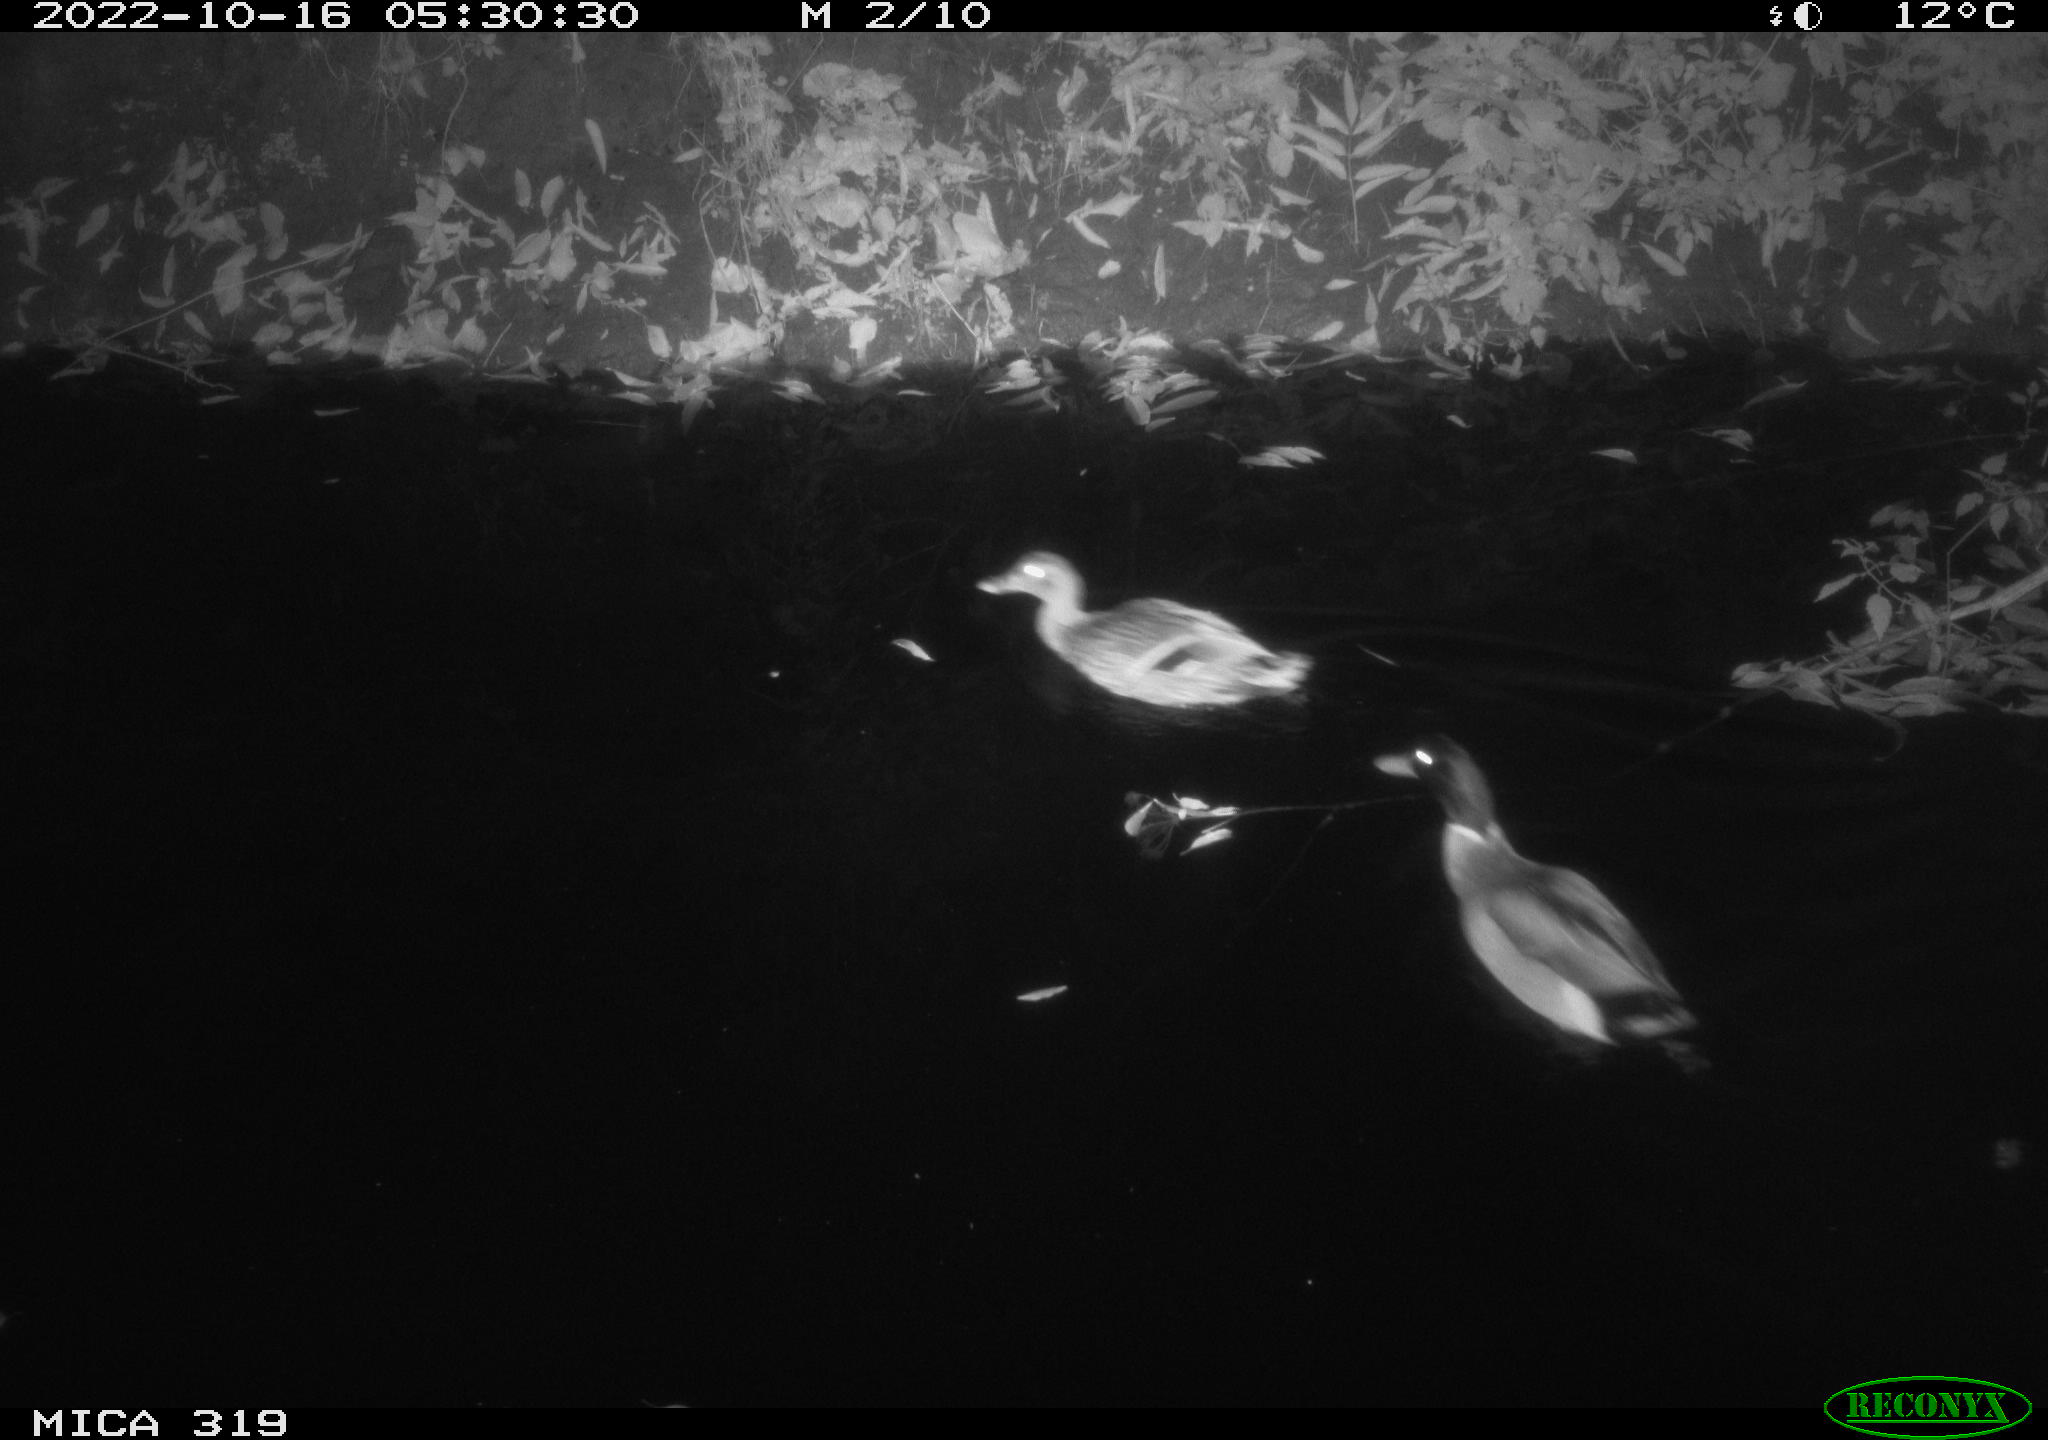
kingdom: Animalia
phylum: Chordata
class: Aves
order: Anseriformes
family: Anatidae
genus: Anas
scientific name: Anas
